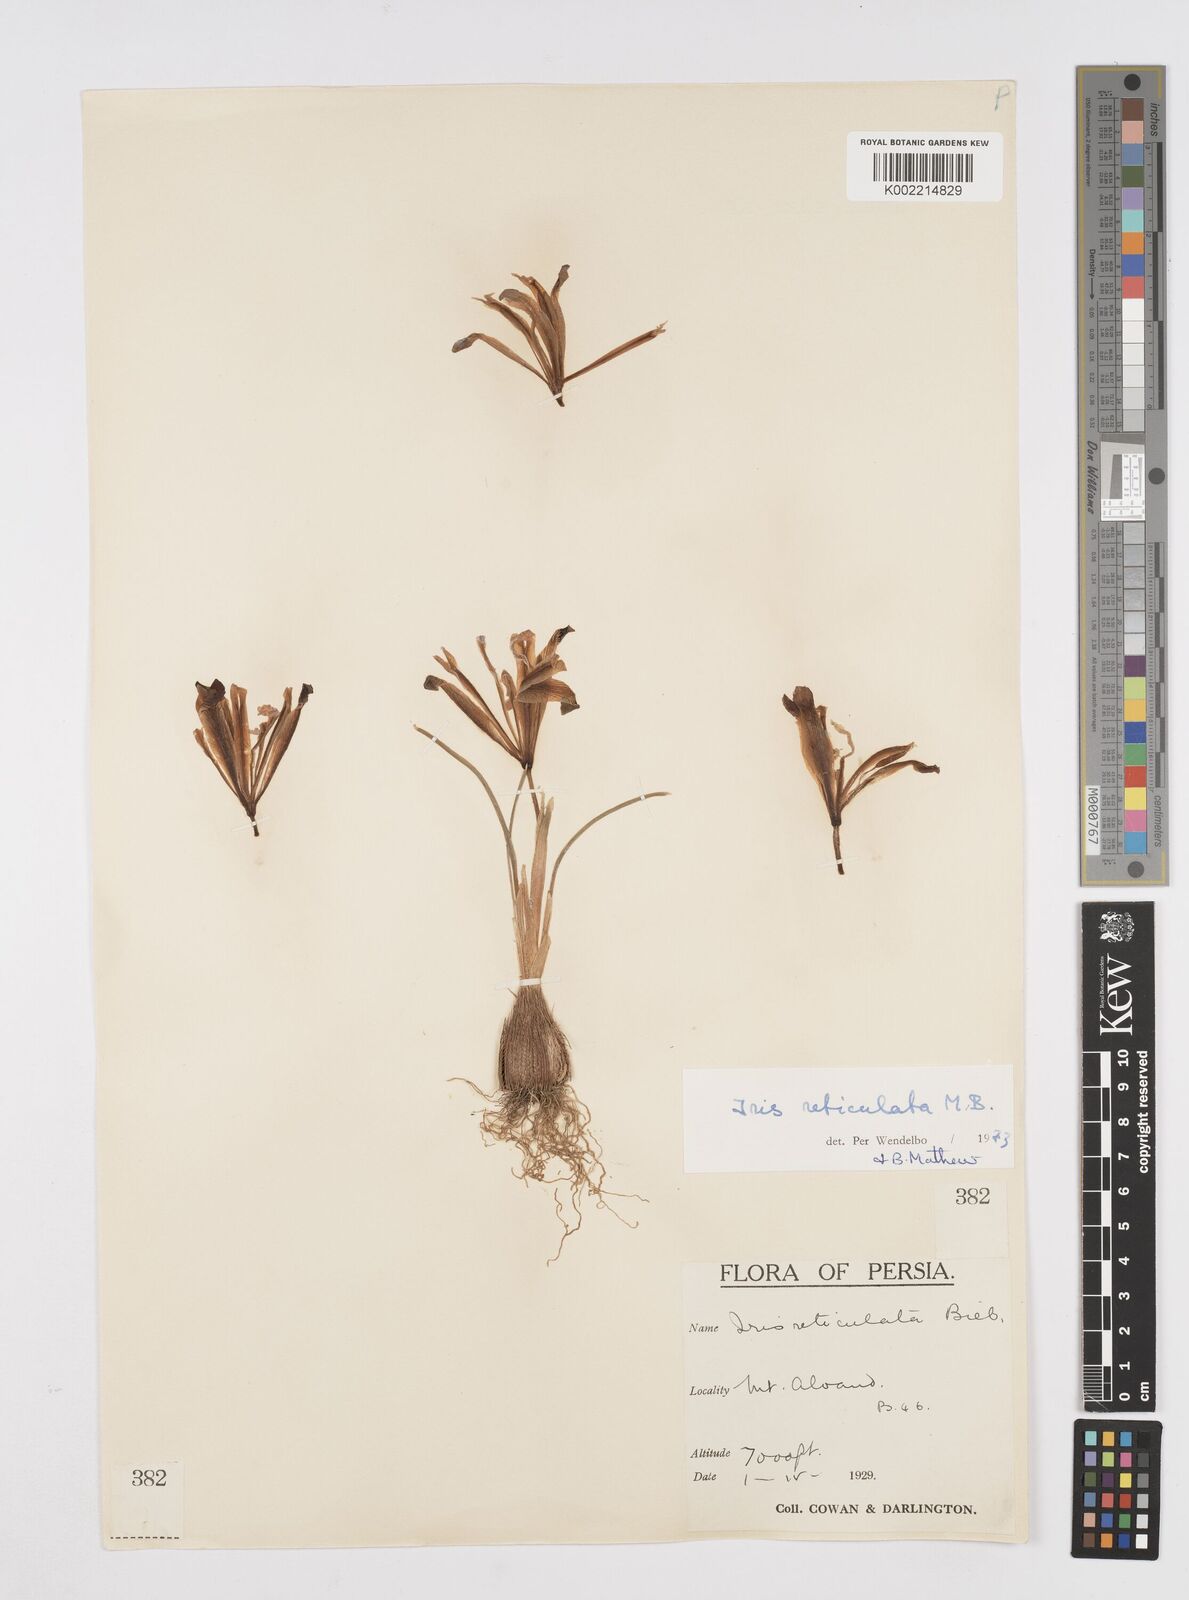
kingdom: Plantae
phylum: Tracheophyta
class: Liliopsida
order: Asparagales
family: Iridaceae
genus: Iris
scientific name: Iris reticulata
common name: Netted iris
